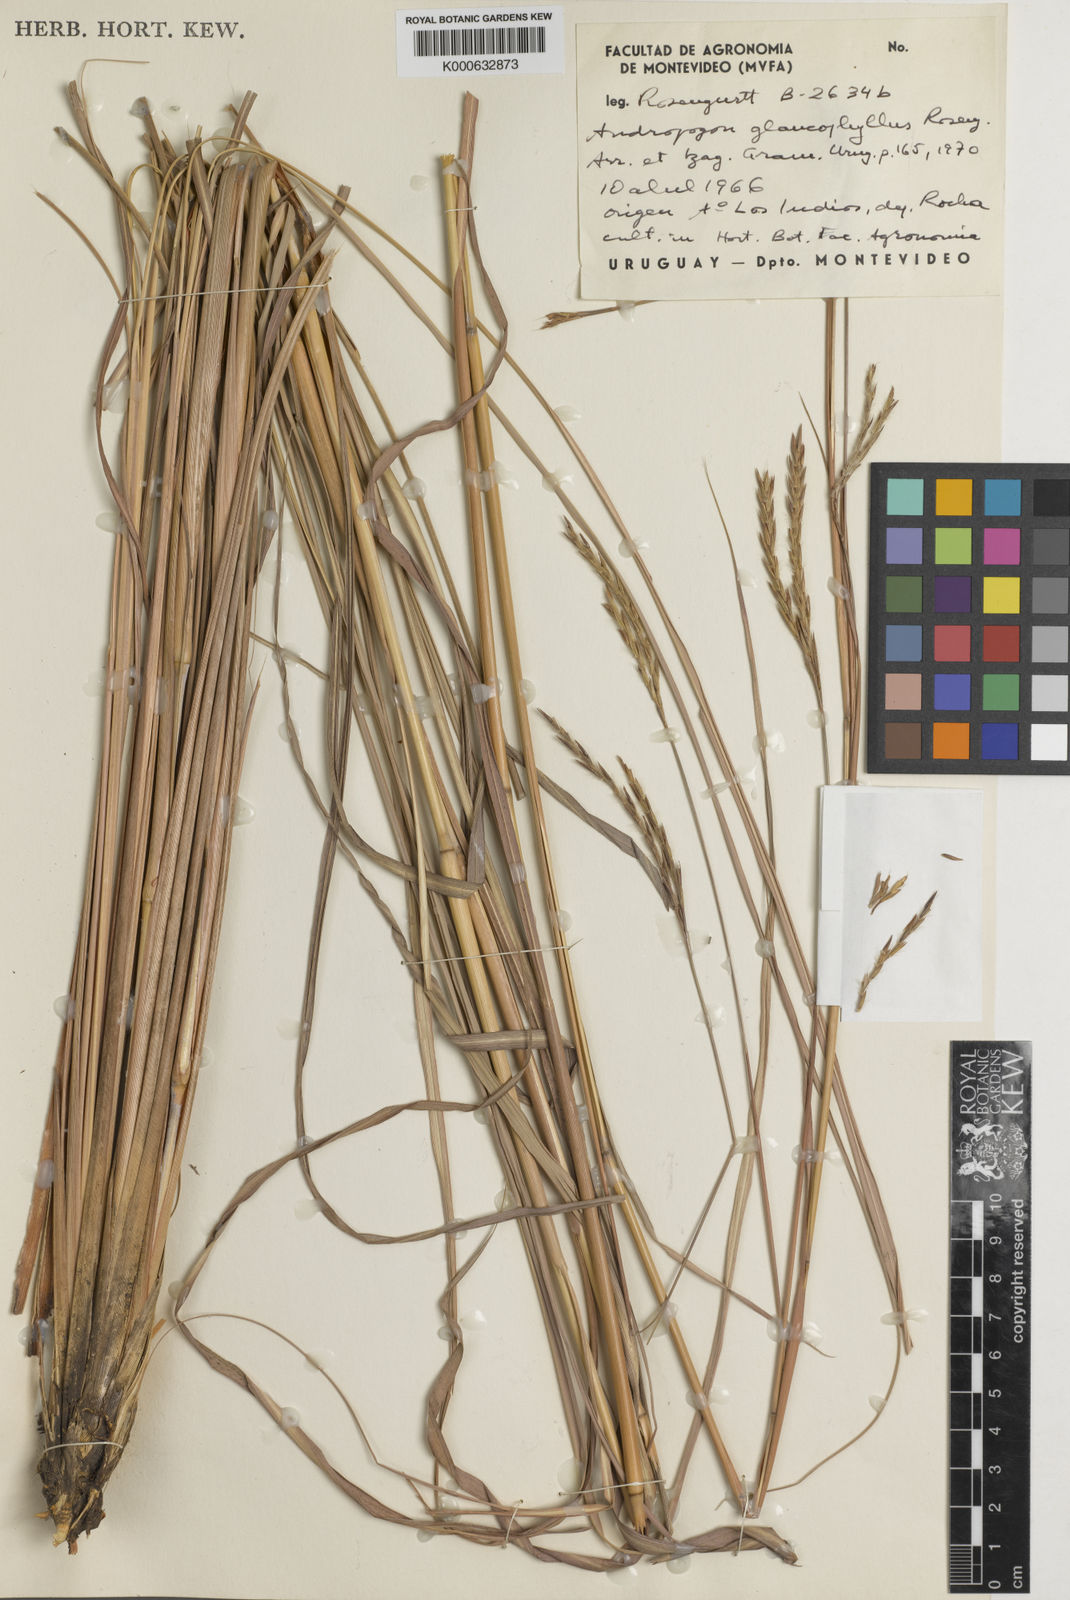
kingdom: Plantae
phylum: Tracheophyta
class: Liliopsida
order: Poales
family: Poaceae
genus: Andropogon
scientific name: Andropogon glaucophyllus
